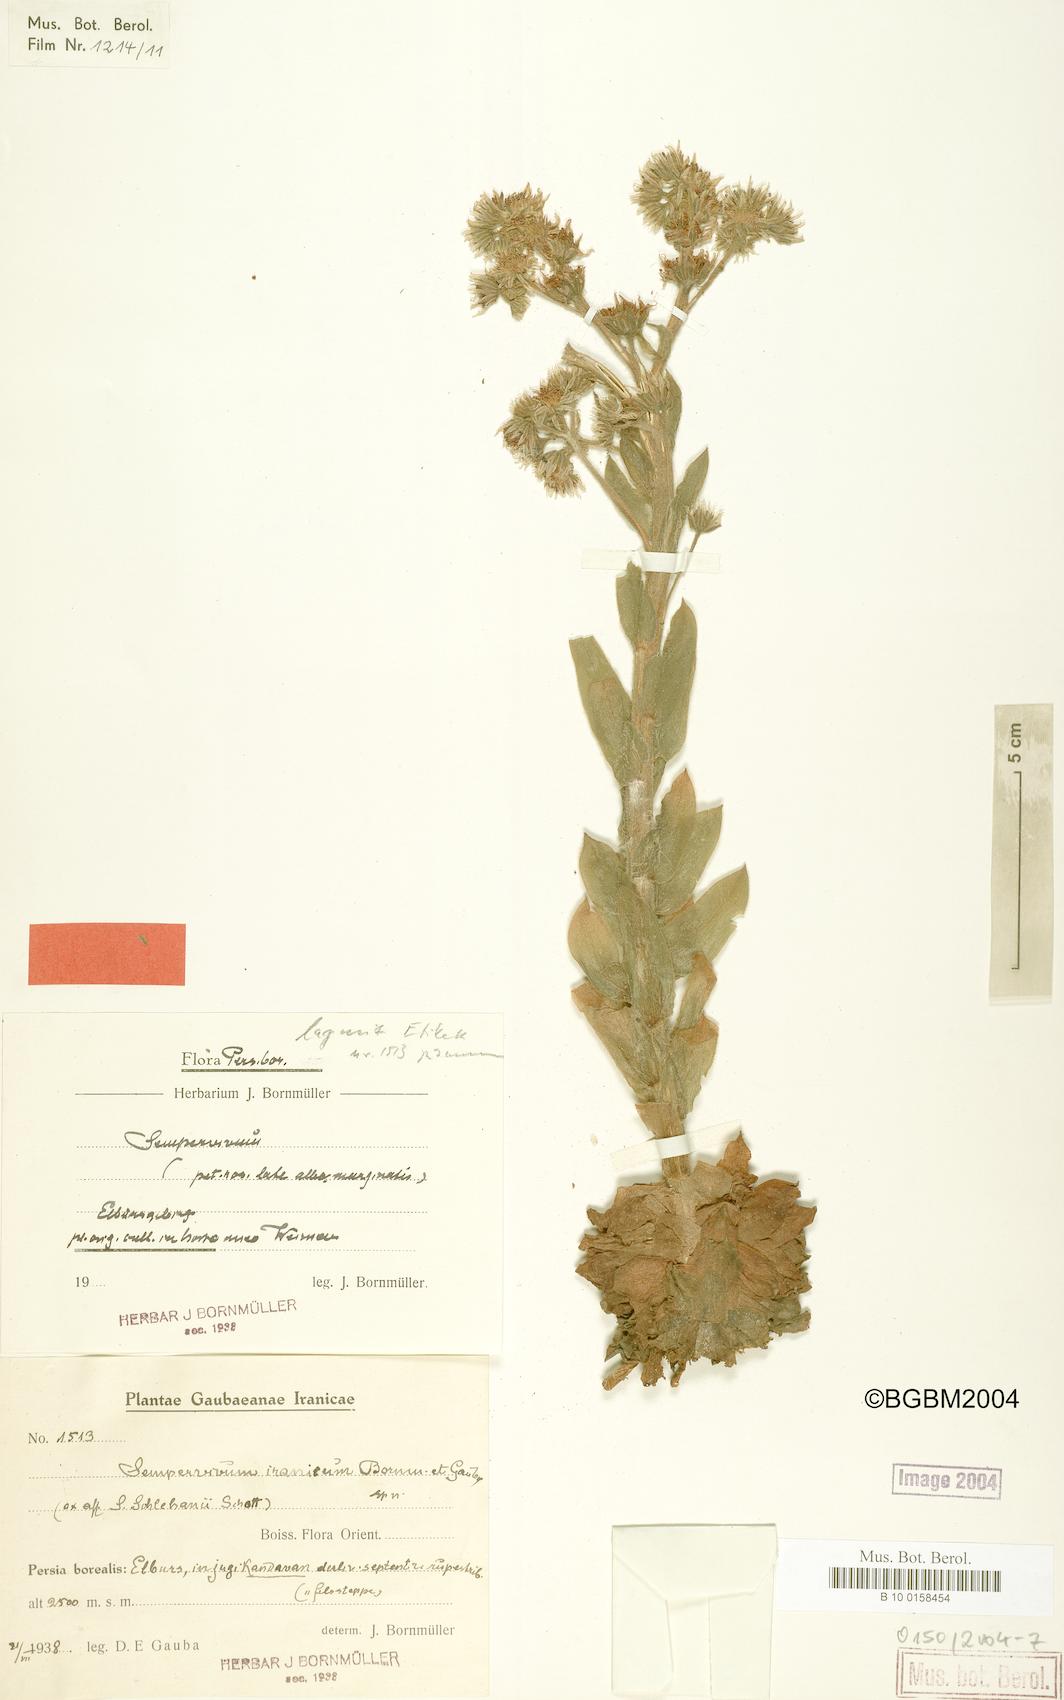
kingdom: Plantae
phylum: Tracheophyta
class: Magnoliopsida
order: Saxifragales
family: Crassulaceae
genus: Sempervivum
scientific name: Sempervivum iranicum
